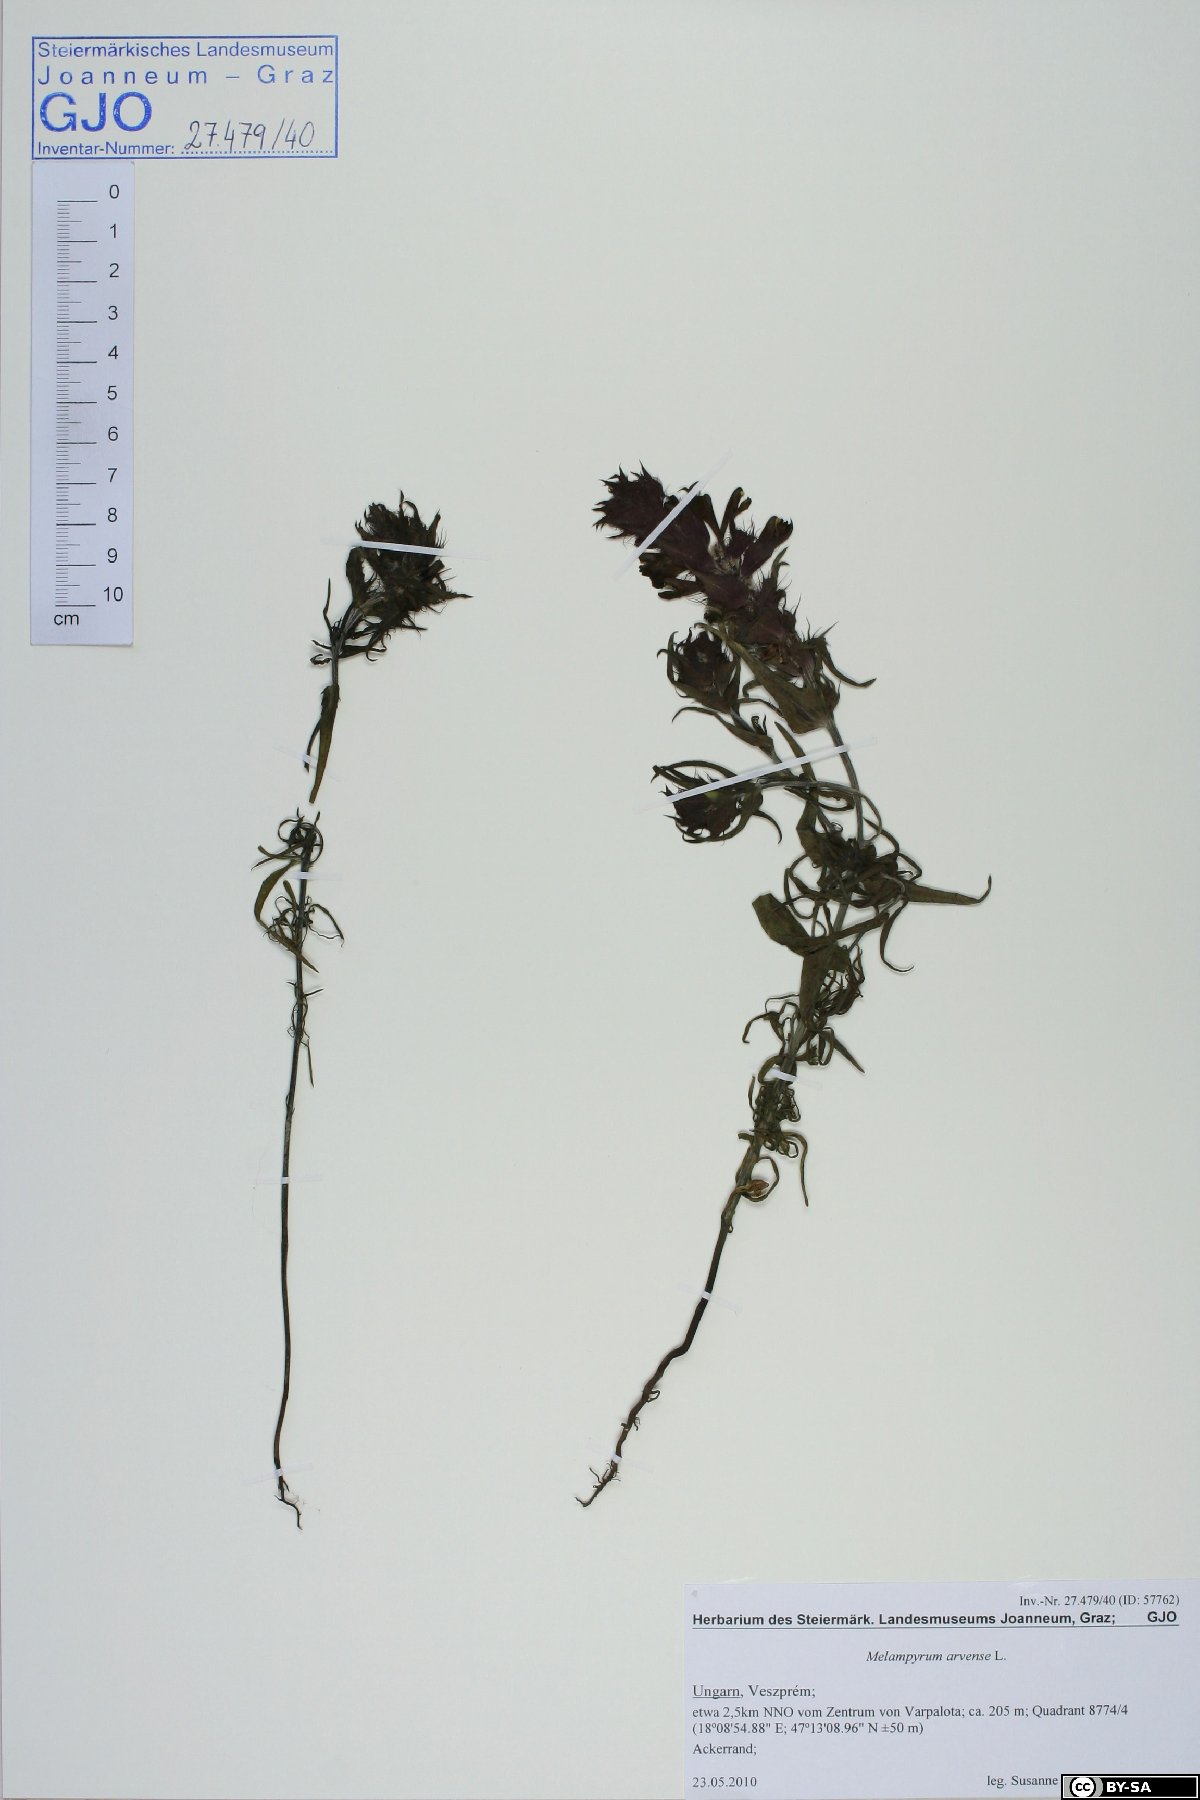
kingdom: Plantae
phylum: Tracheophyta
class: Magnoliopsida
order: Lamiales
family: Orobanchaceae
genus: Melampyrum
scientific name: Melampyrum arvense
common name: Field cow-wheat
